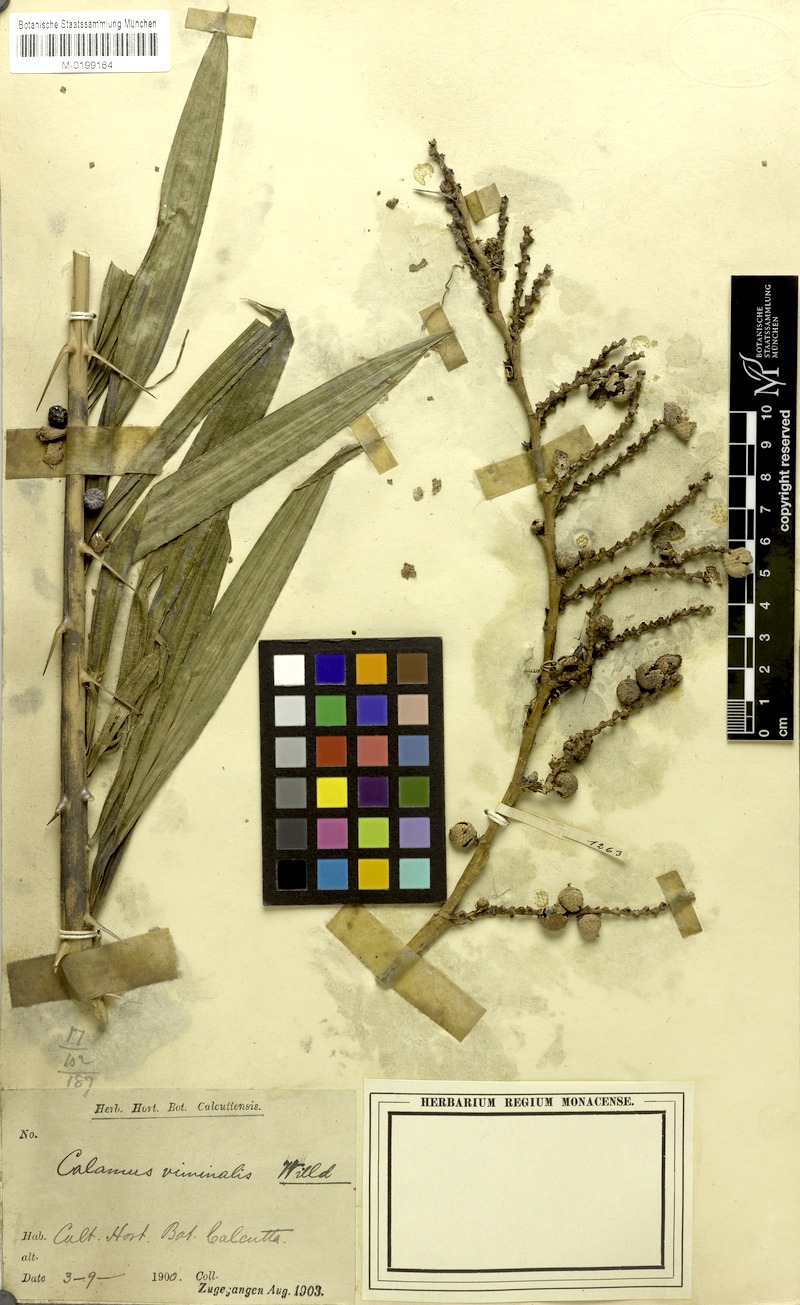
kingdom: Plantae
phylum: Tracheophyta
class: Liliopsida
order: Arecales
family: Arecaceae
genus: Calamus
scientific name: Calamus viminalis
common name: Osier-like rattan palm
